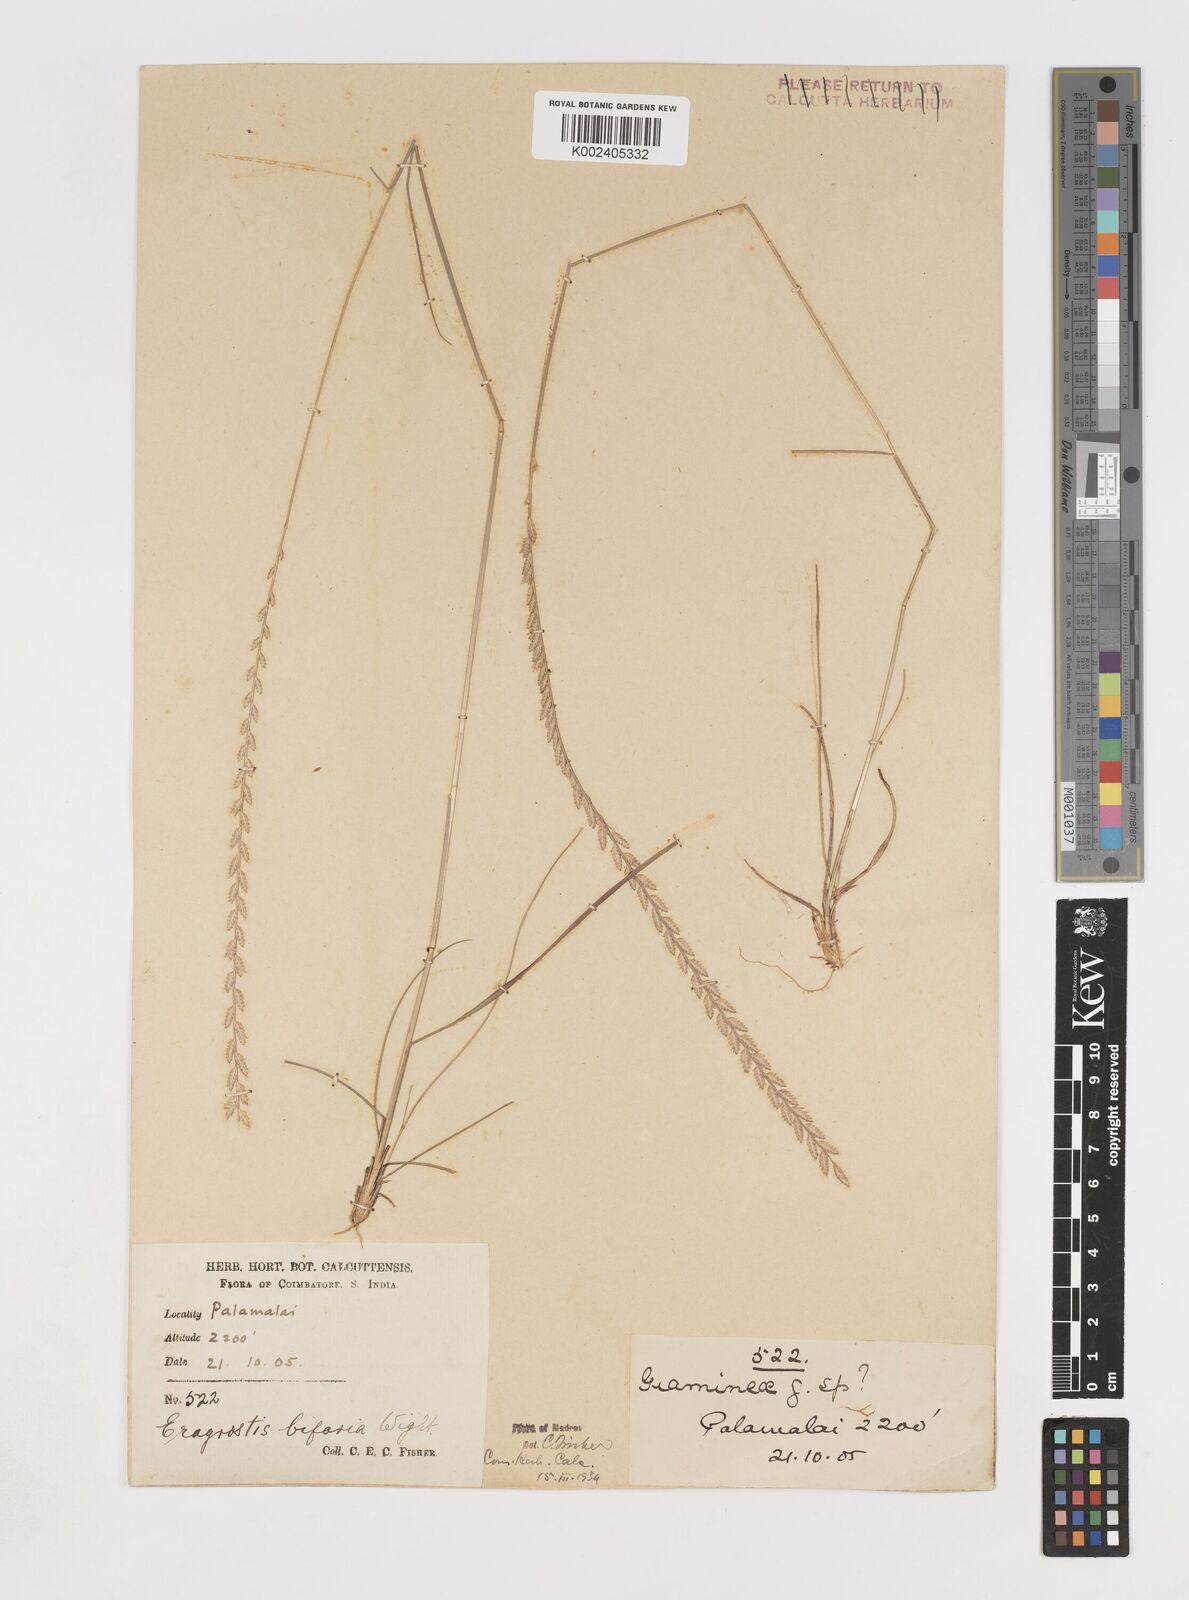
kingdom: Plantae
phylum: Tracheophyta
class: Liliopsida
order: Poales
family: Poaceae
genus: Eragrostiella
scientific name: Eragrostiella bifaria
